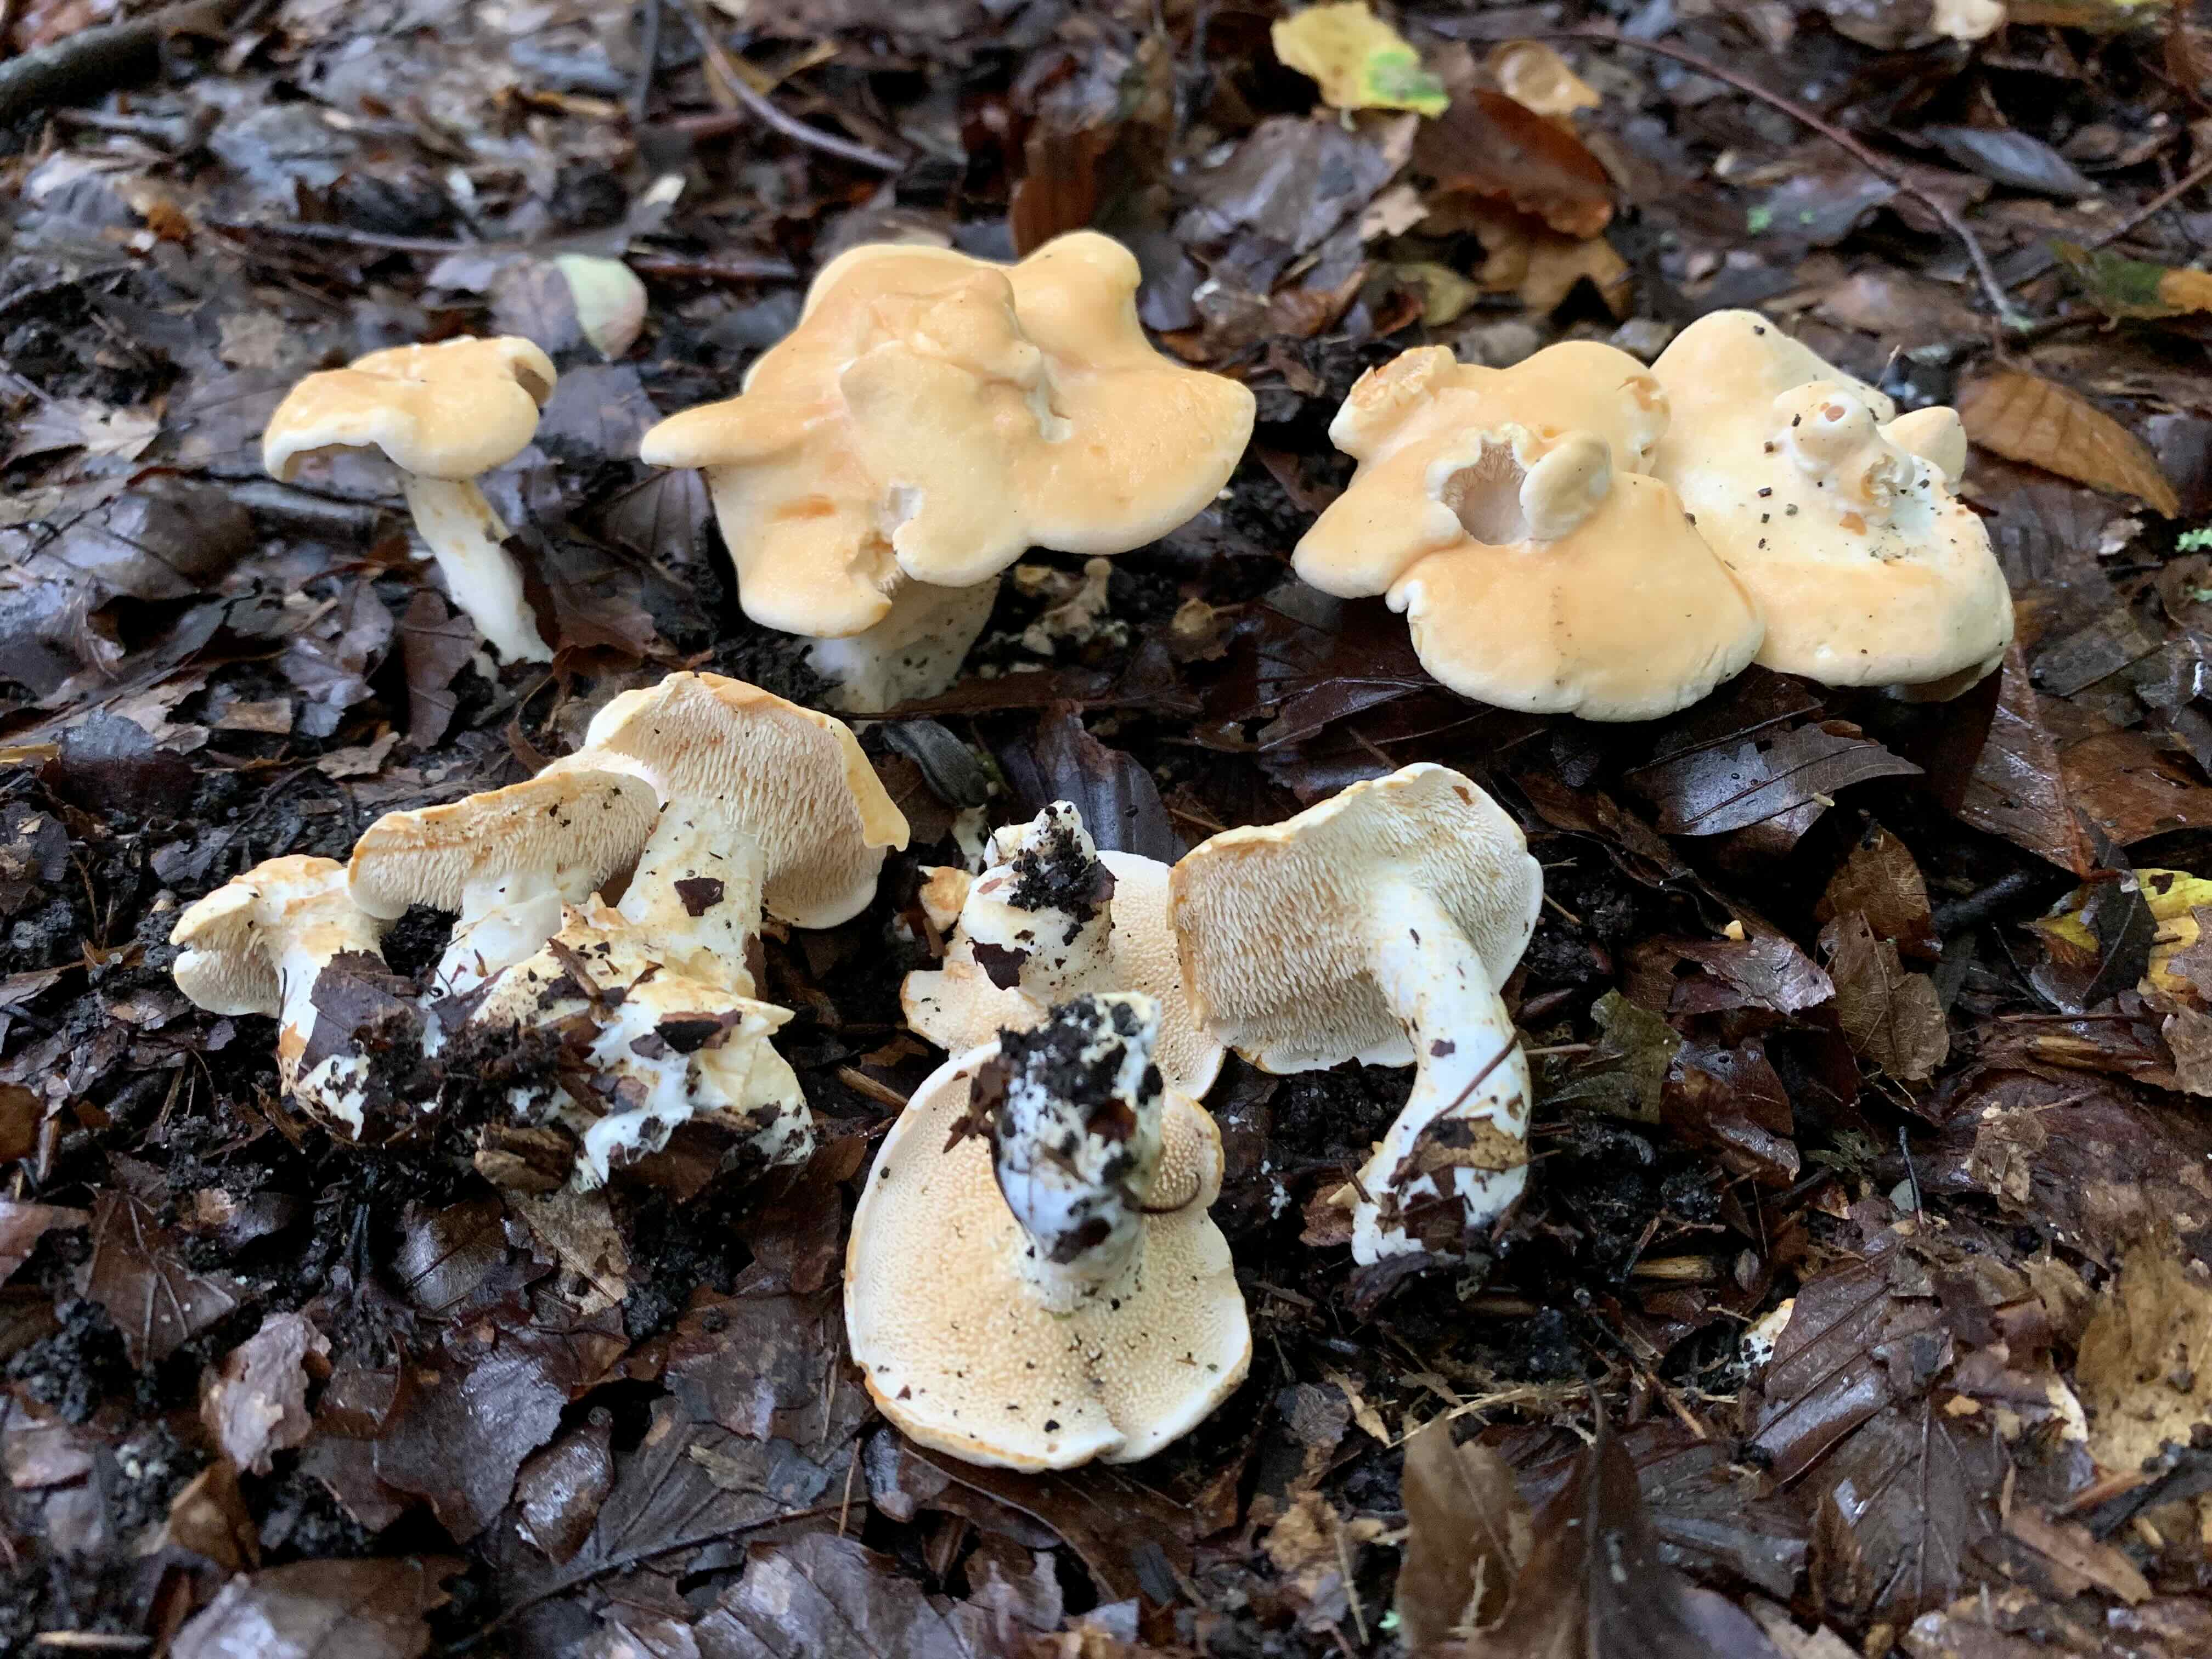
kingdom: Fungi
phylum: Basidiomycota
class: Agaricomycetes
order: Cantharellales
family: Hydnaceae
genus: Hydnum
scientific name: Hydnum repandum
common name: almindelig pigsvamp
